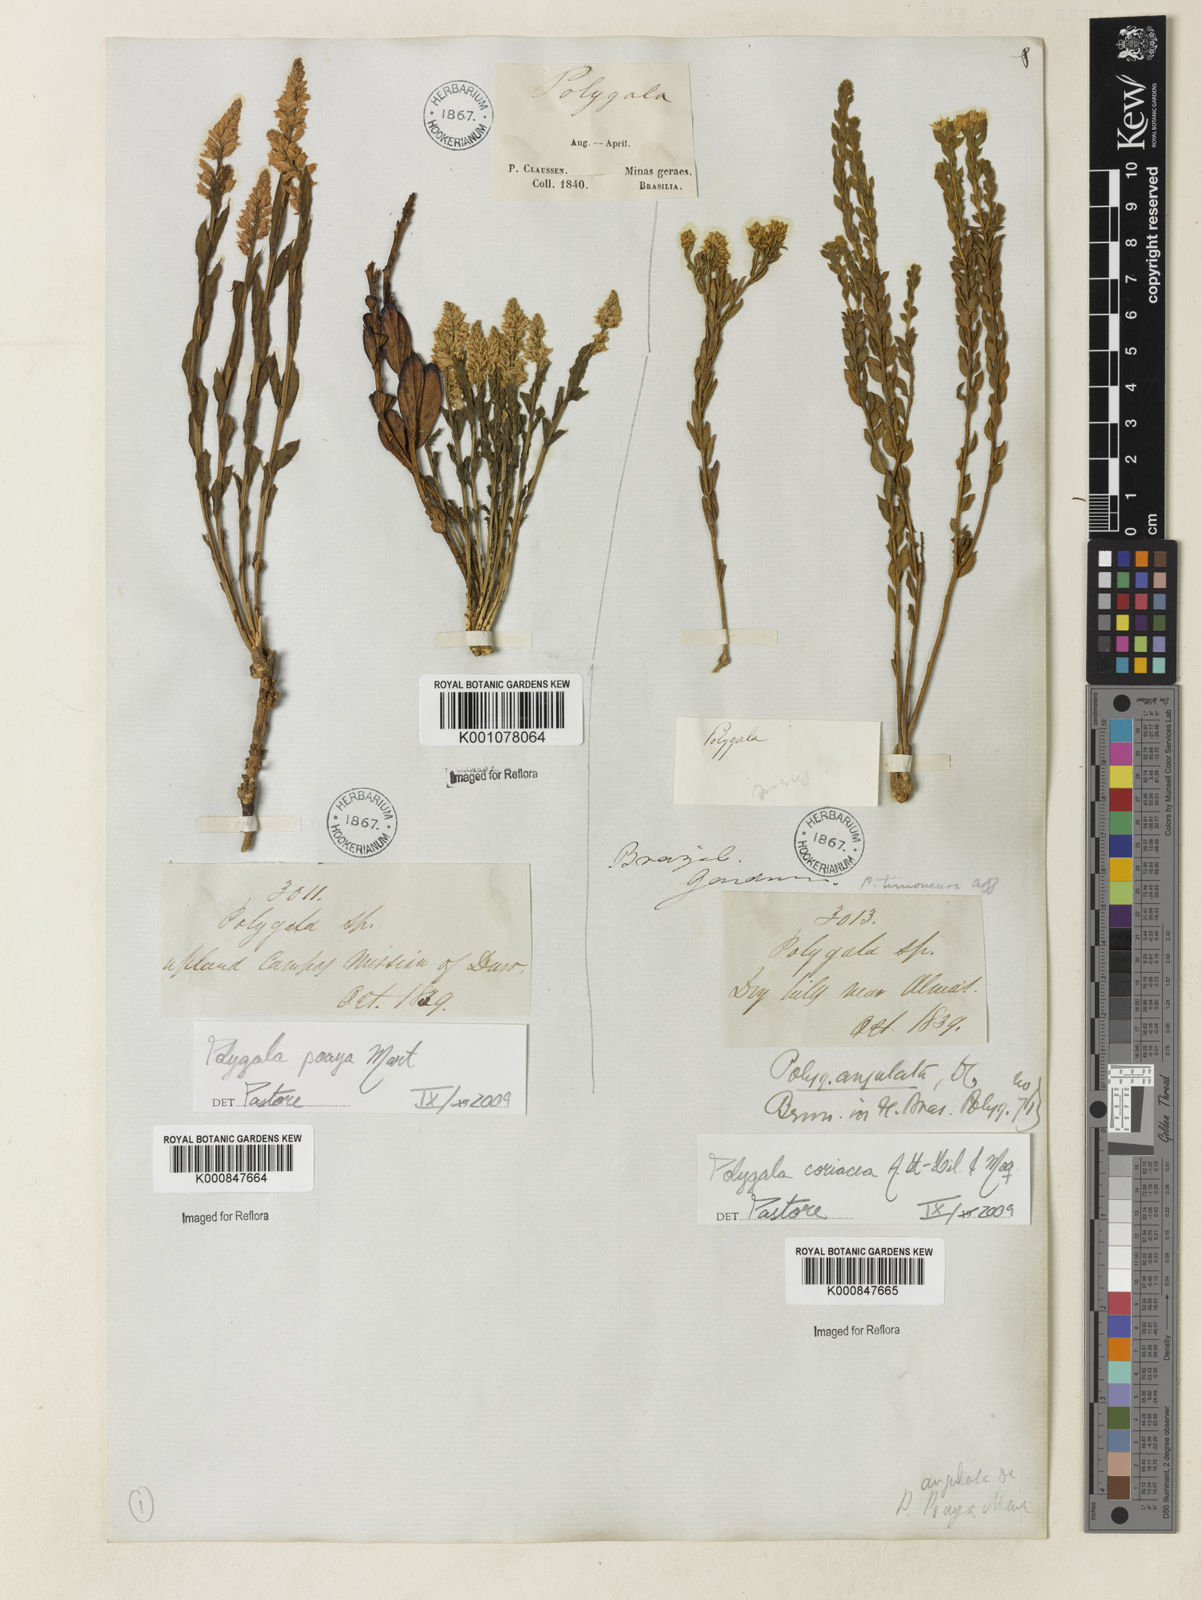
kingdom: Plantae
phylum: Tracheophyta
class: Magnoliopsida
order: Fabales
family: Polygalaceae
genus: Polygala
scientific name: Polygala coriacea
